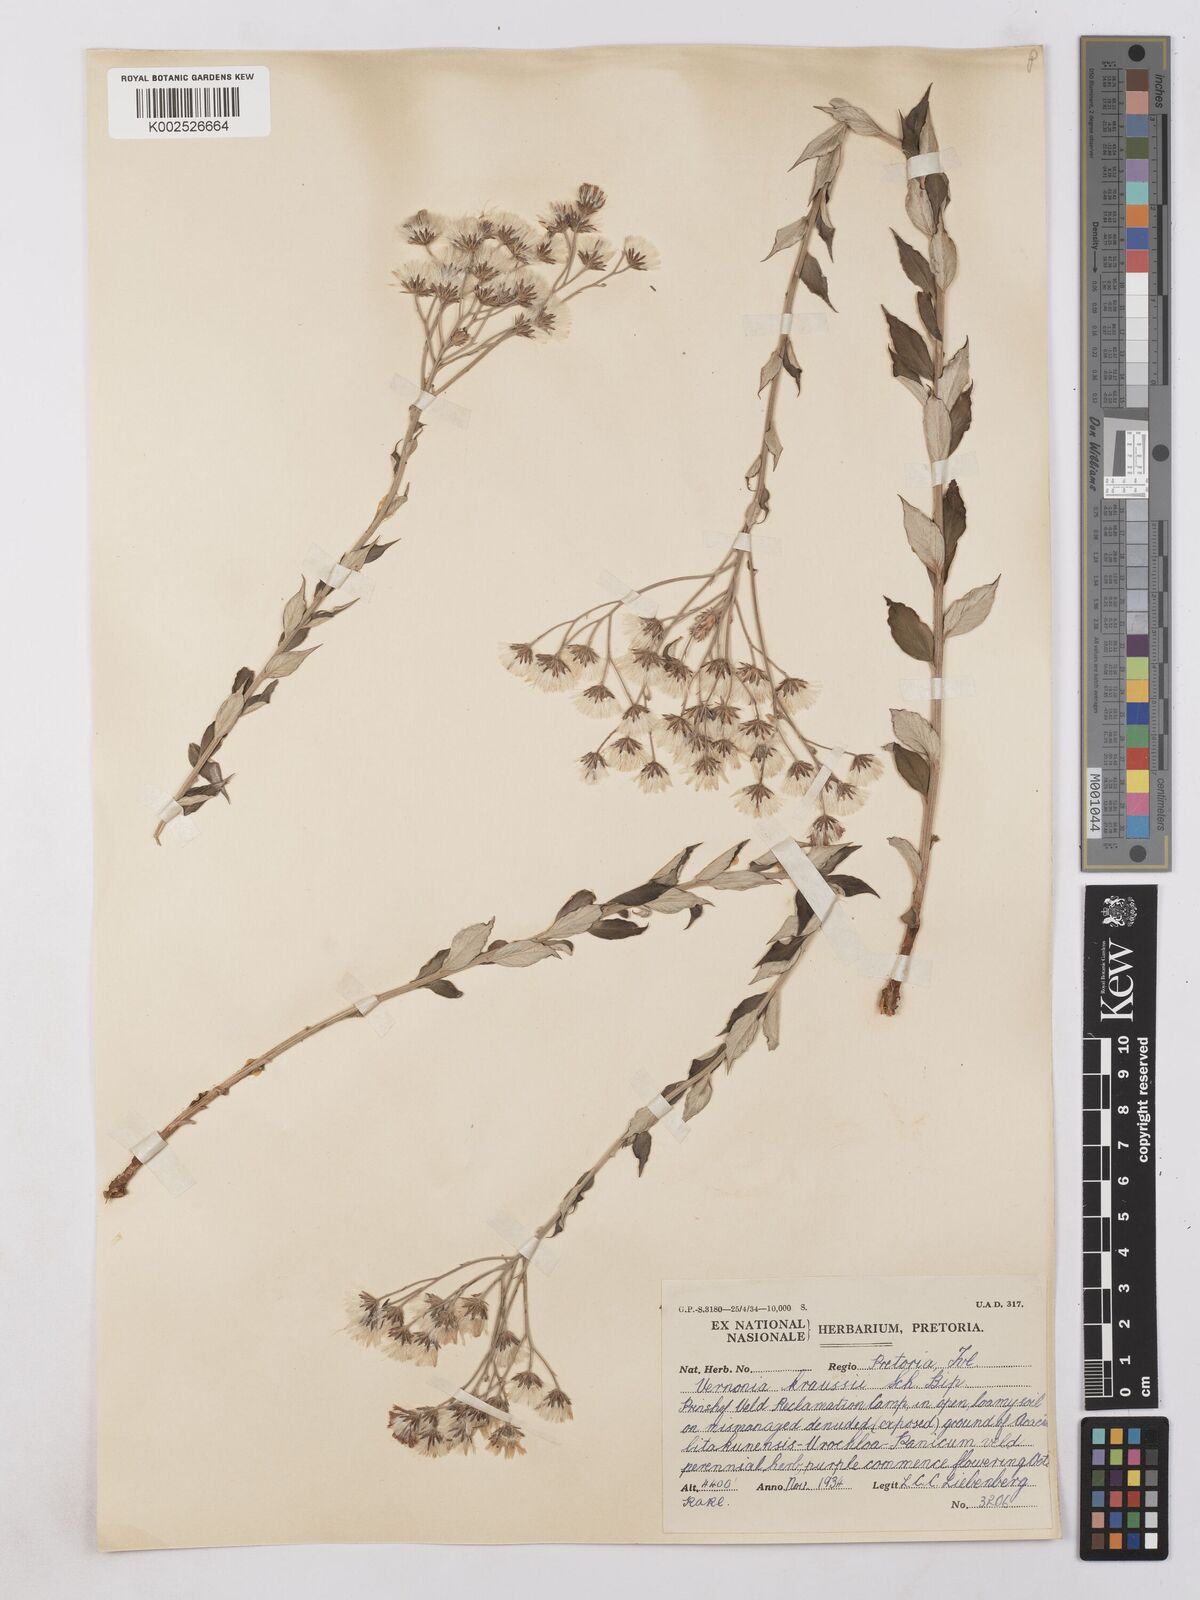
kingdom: Plantae
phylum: Tracheophyta
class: Magnoliopsida
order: Asterales
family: Asteraceae
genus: Hilliardiella
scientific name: Hilliardiella oligocephala
